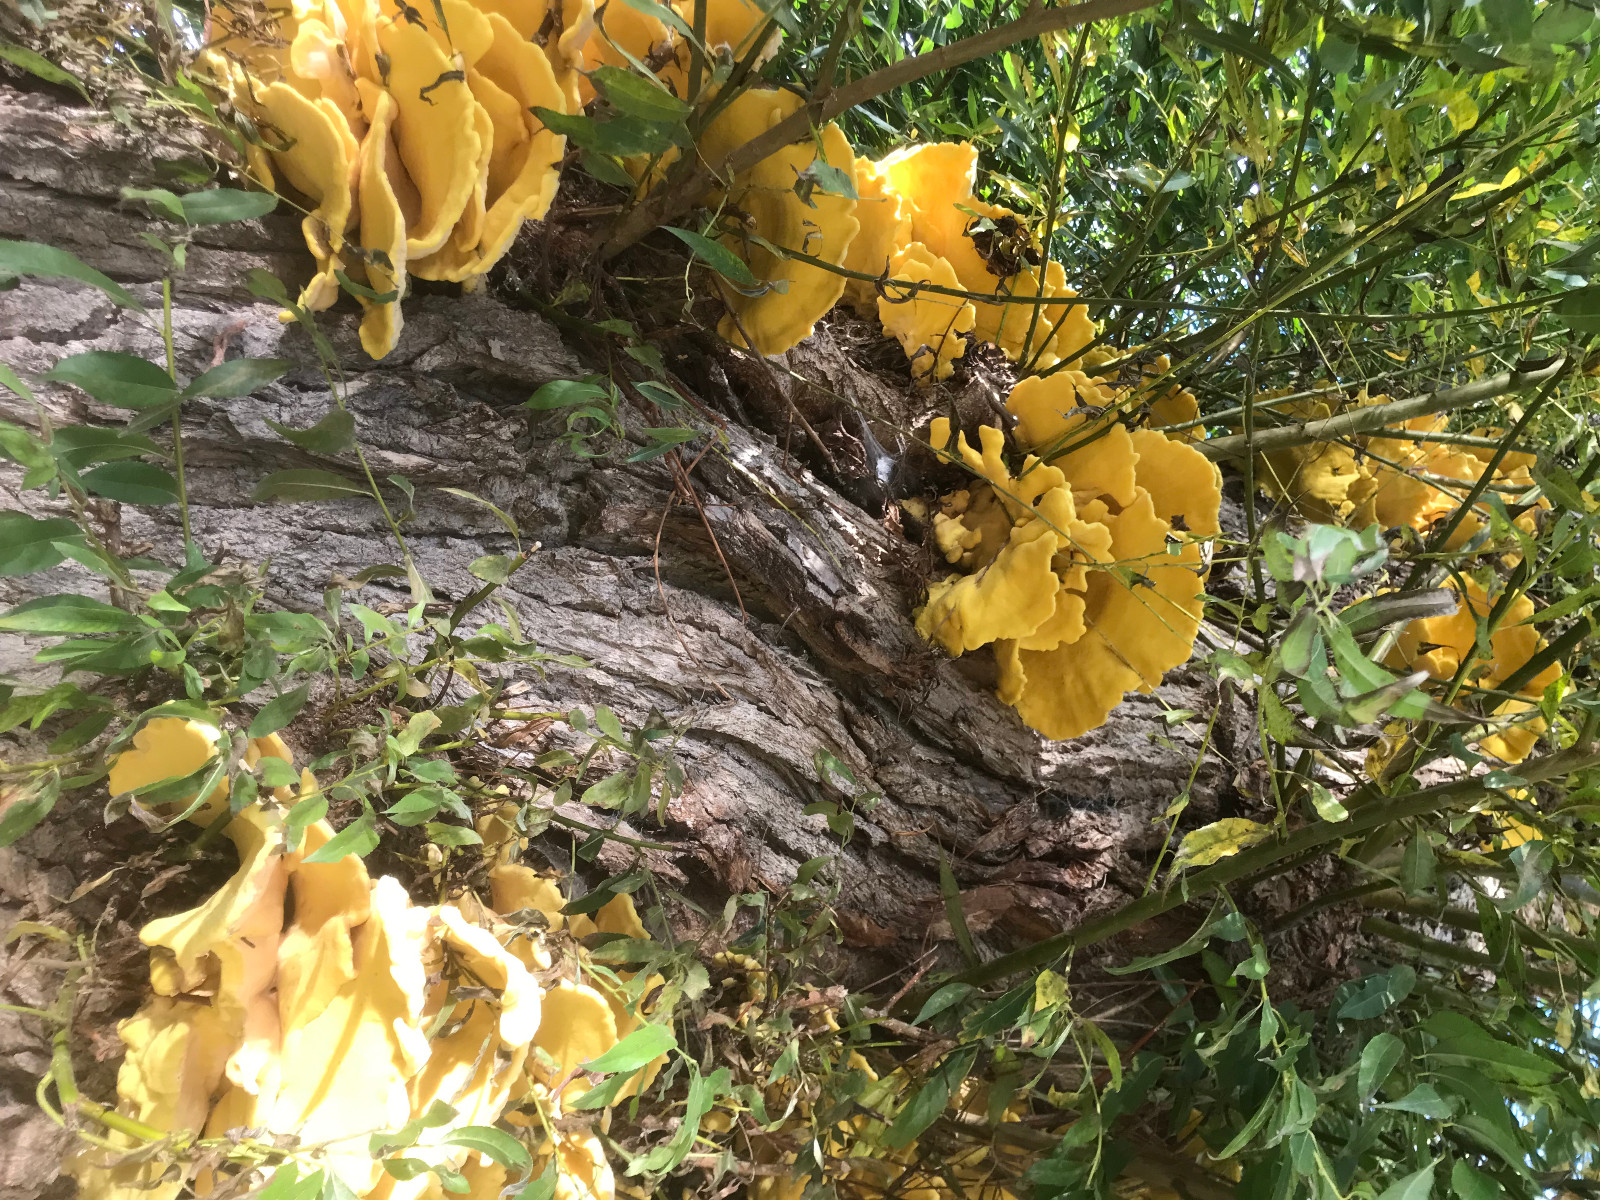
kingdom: Fungi
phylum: Basidiomycota
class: Agaricomycetes
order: Polyporales
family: Laetiporaceae
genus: Laetiporus
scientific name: Laetiporus sulphureus
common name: svovlporesvamp
